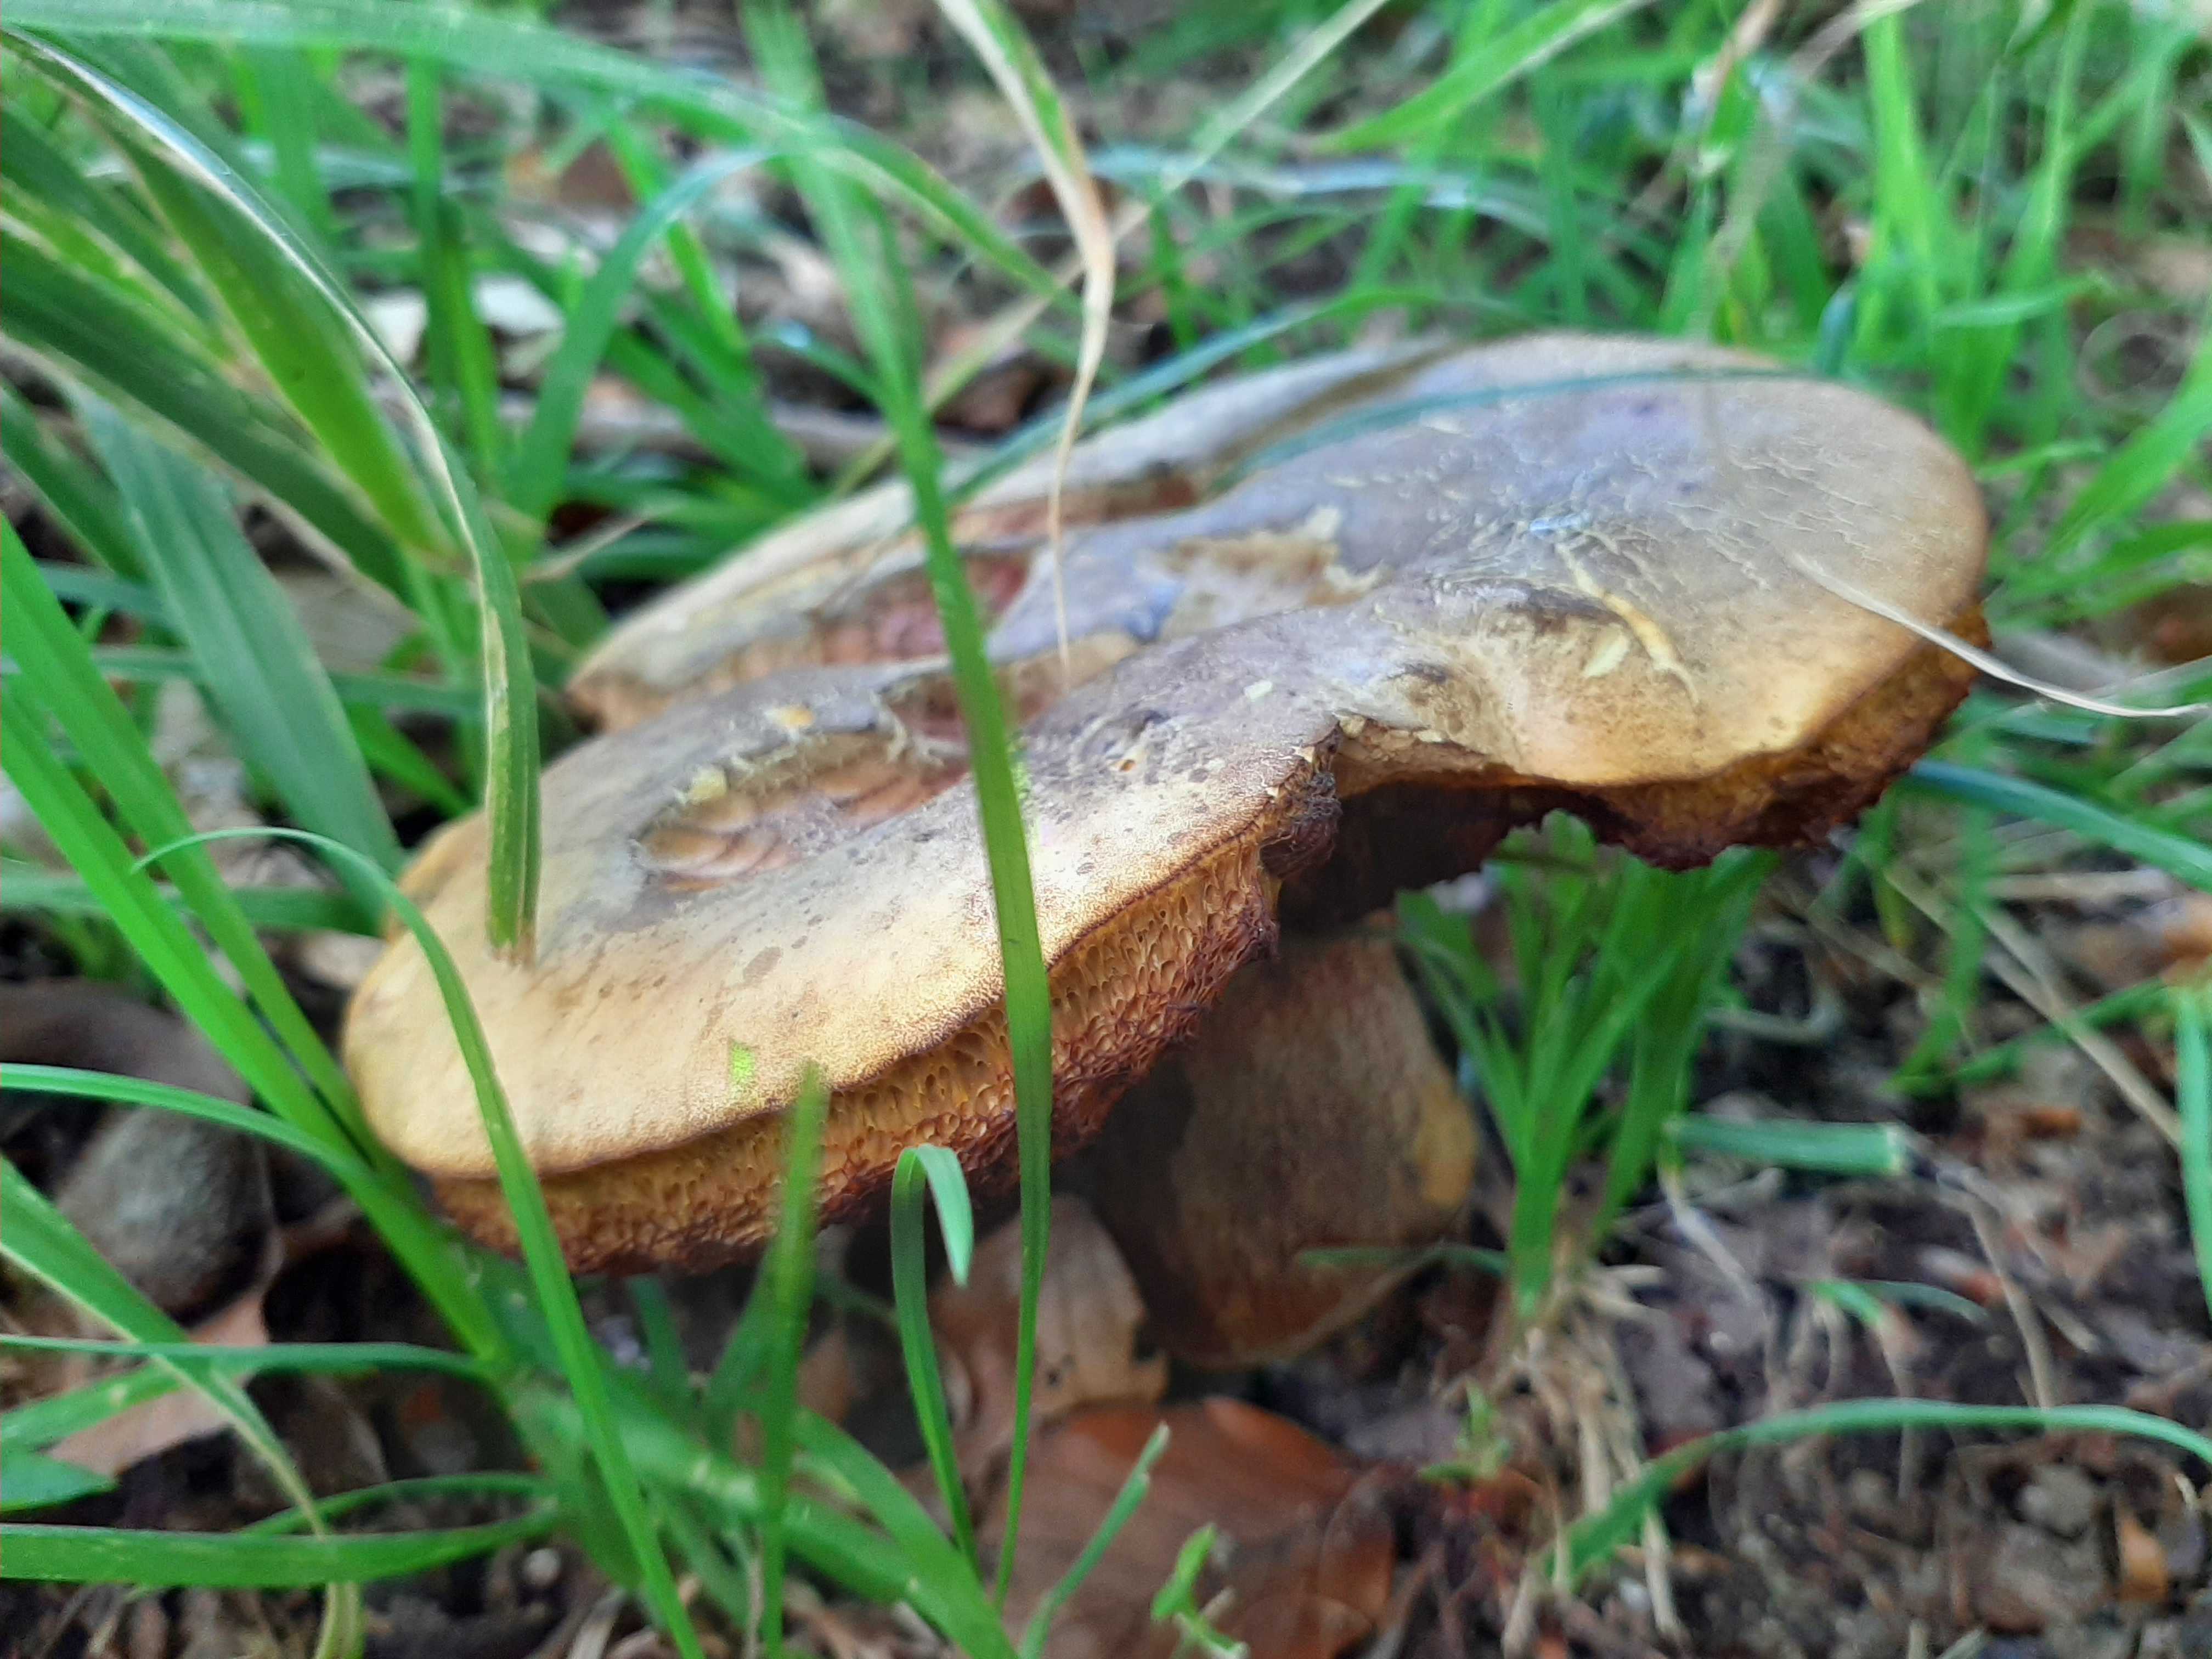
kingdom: Fungi
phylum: Basidiomycota
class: Agaricomycetes
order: Boletales
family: Boletaceae
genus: Suillellus
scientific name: Suillellus luridus
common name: netstokket indigorørhat
